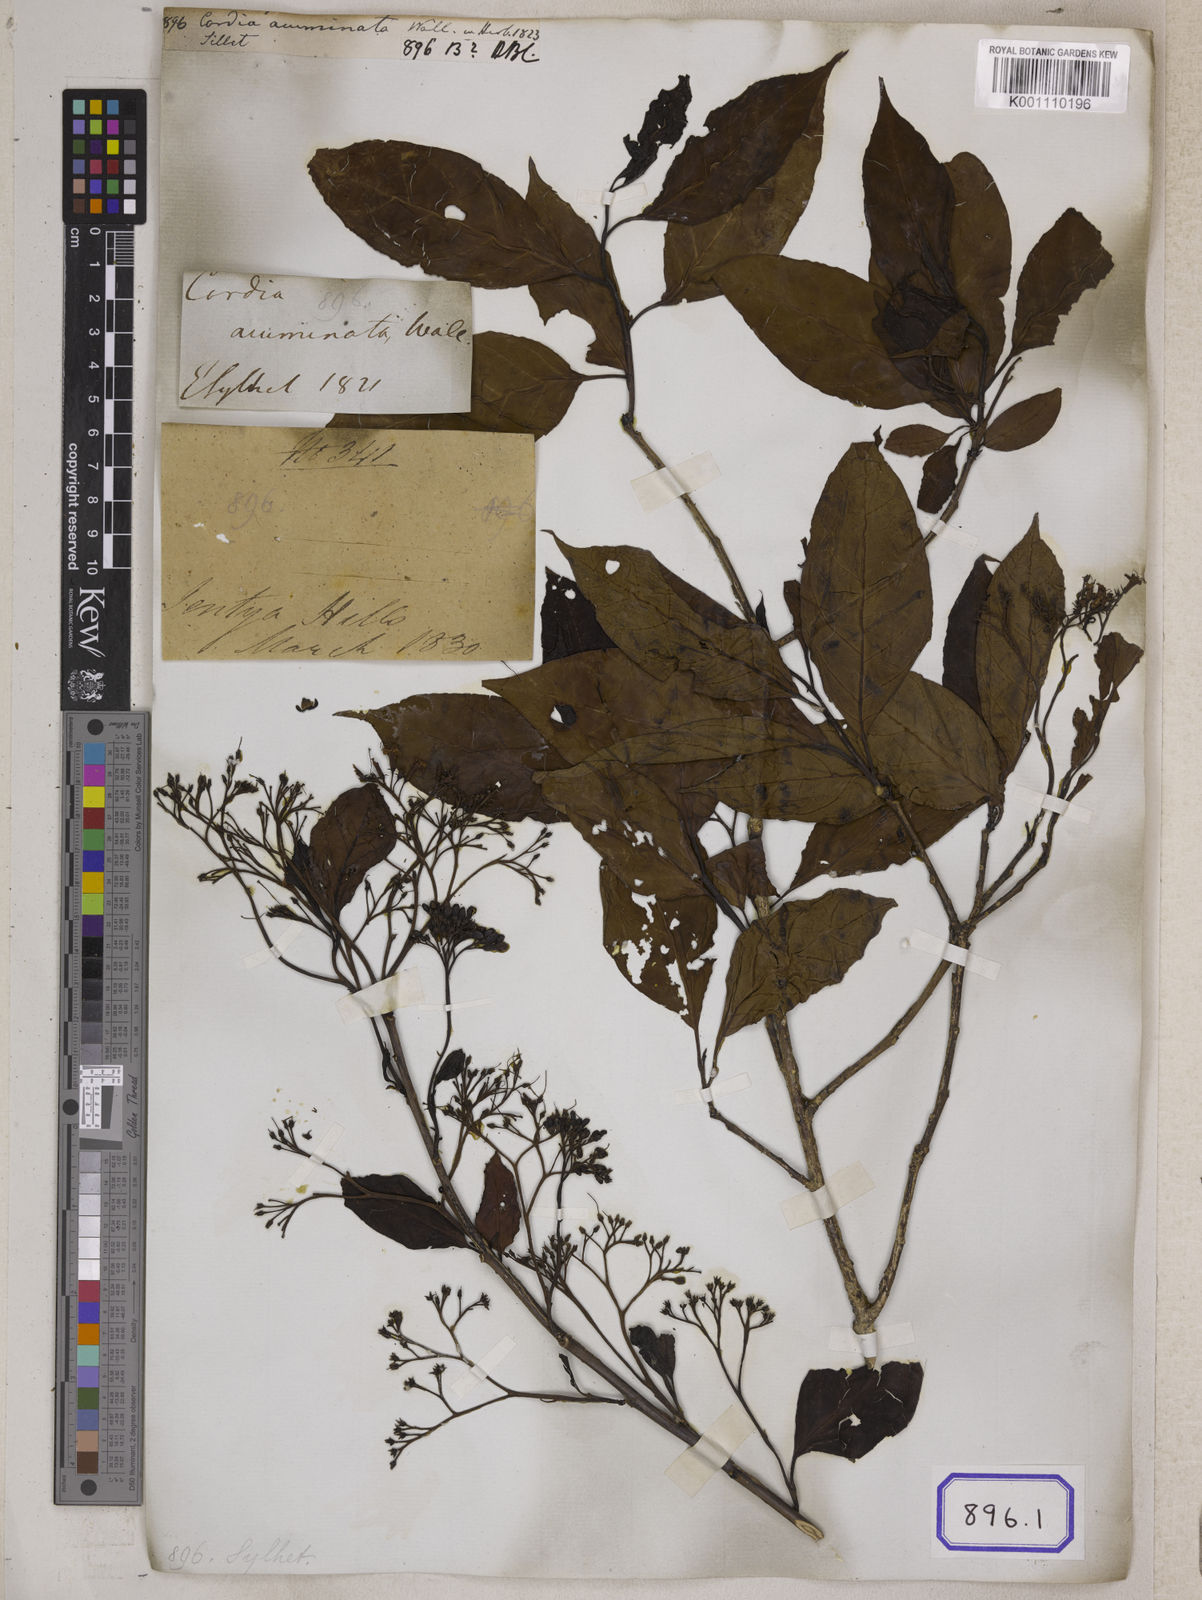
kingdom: Plantae
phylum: Tracheophyta
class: Magnoliopsida
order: Boraginales
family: Cordiaceae
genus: Cordia
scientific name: Cordia
